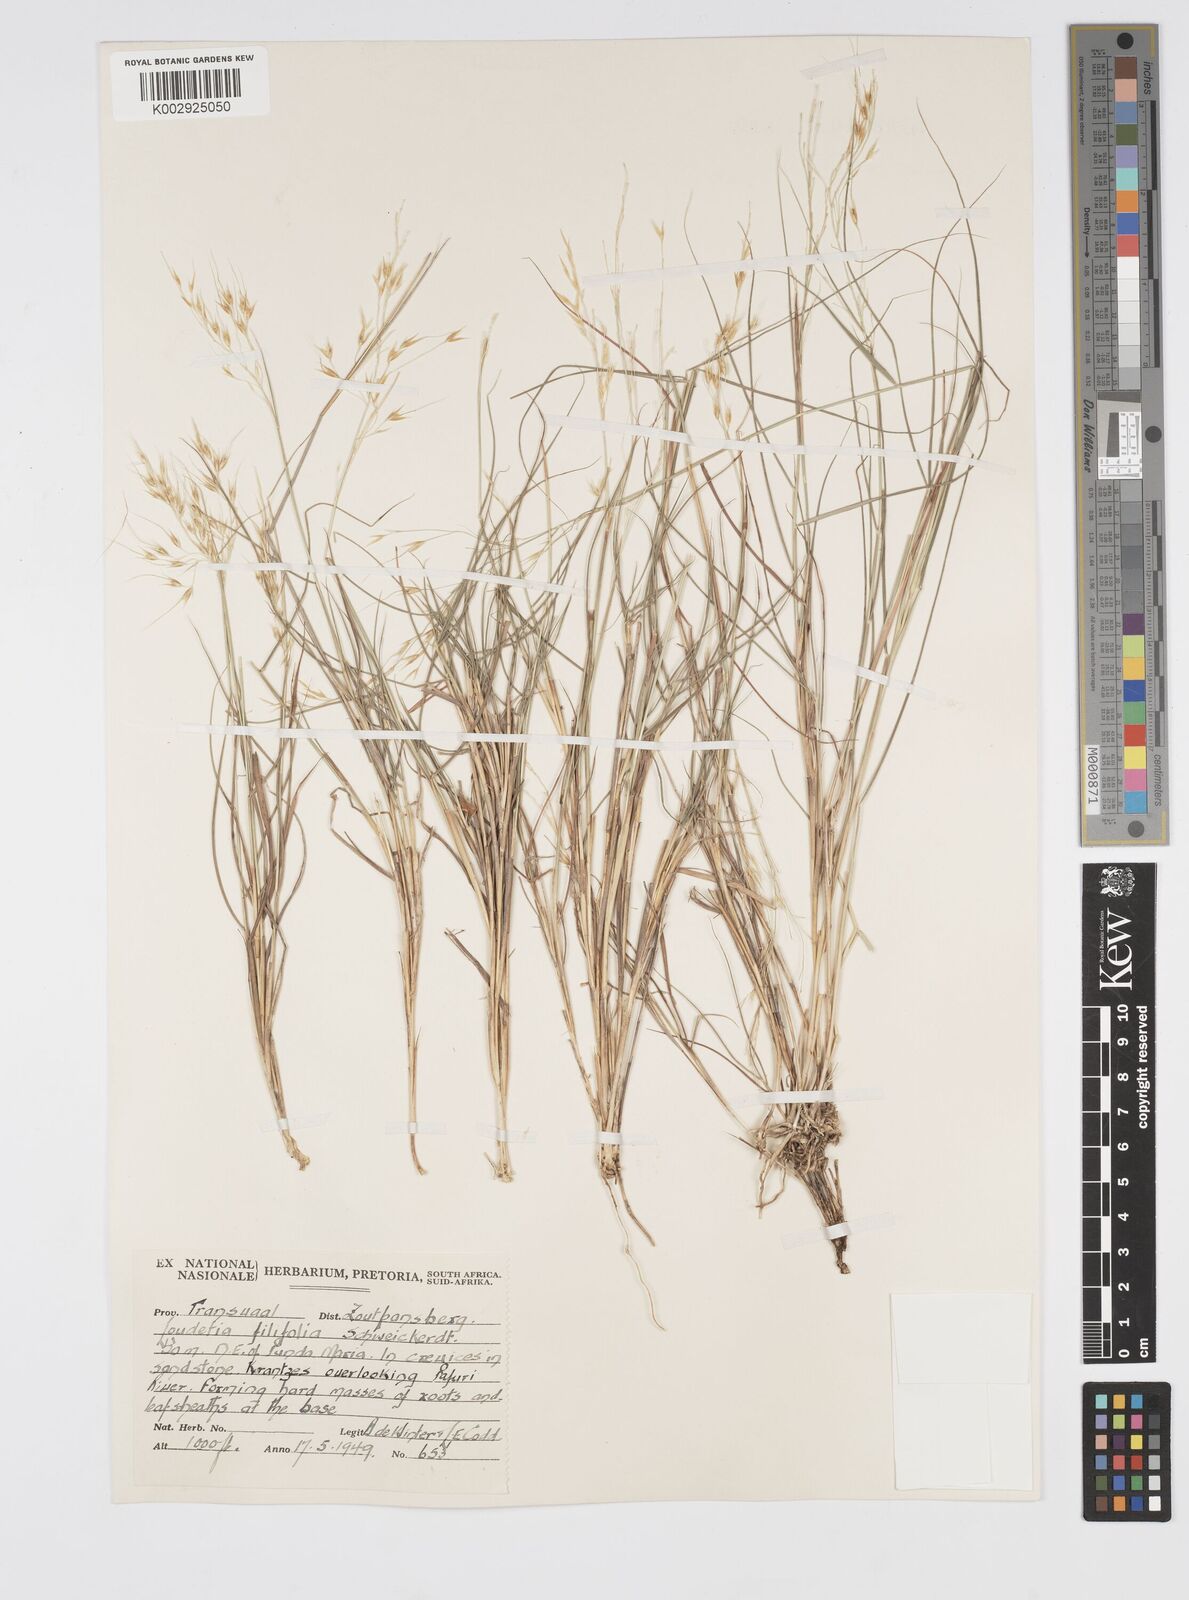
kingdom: Plantae
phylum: Tracheophyta
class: Liliopsida
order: Poales
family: Poaceae
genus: Loudetia
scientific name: Loudetia filifolia
